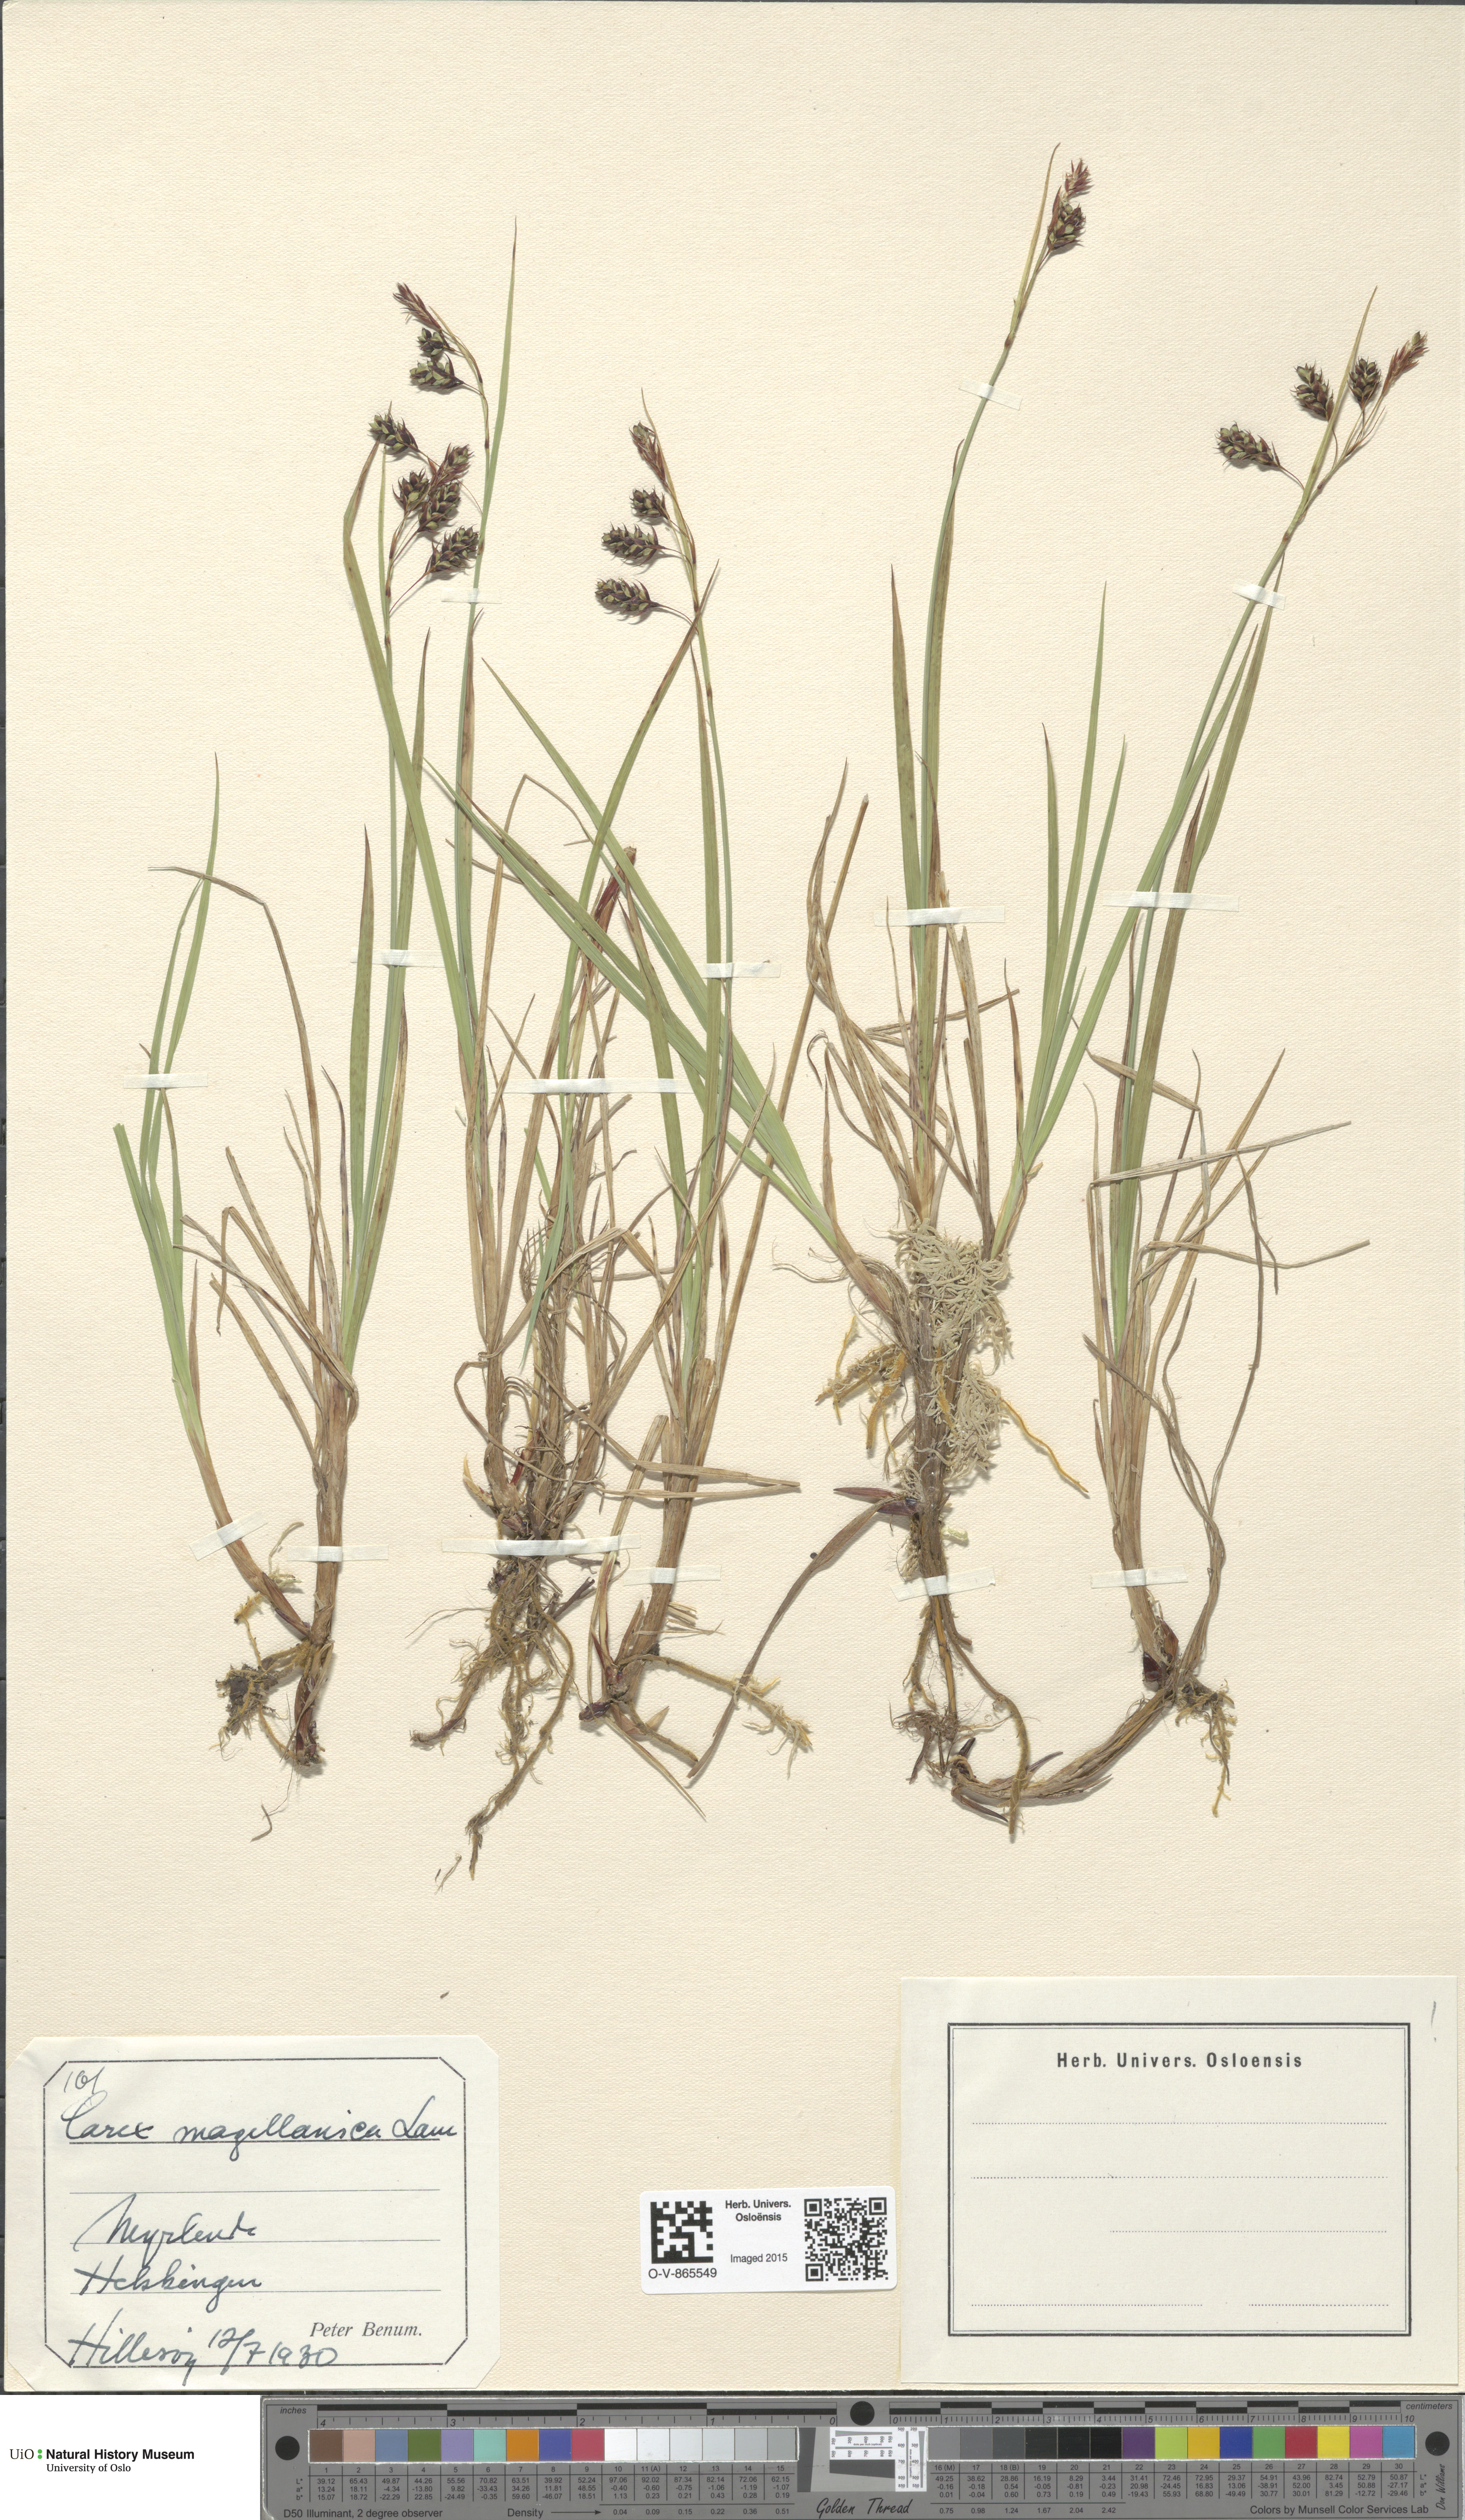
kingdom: Plantae
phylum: Tracheophyta
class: Liliopsida
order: Poales
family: Cyperaceae
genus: Carex
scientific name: Carex magellanica
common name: Bog sedge
